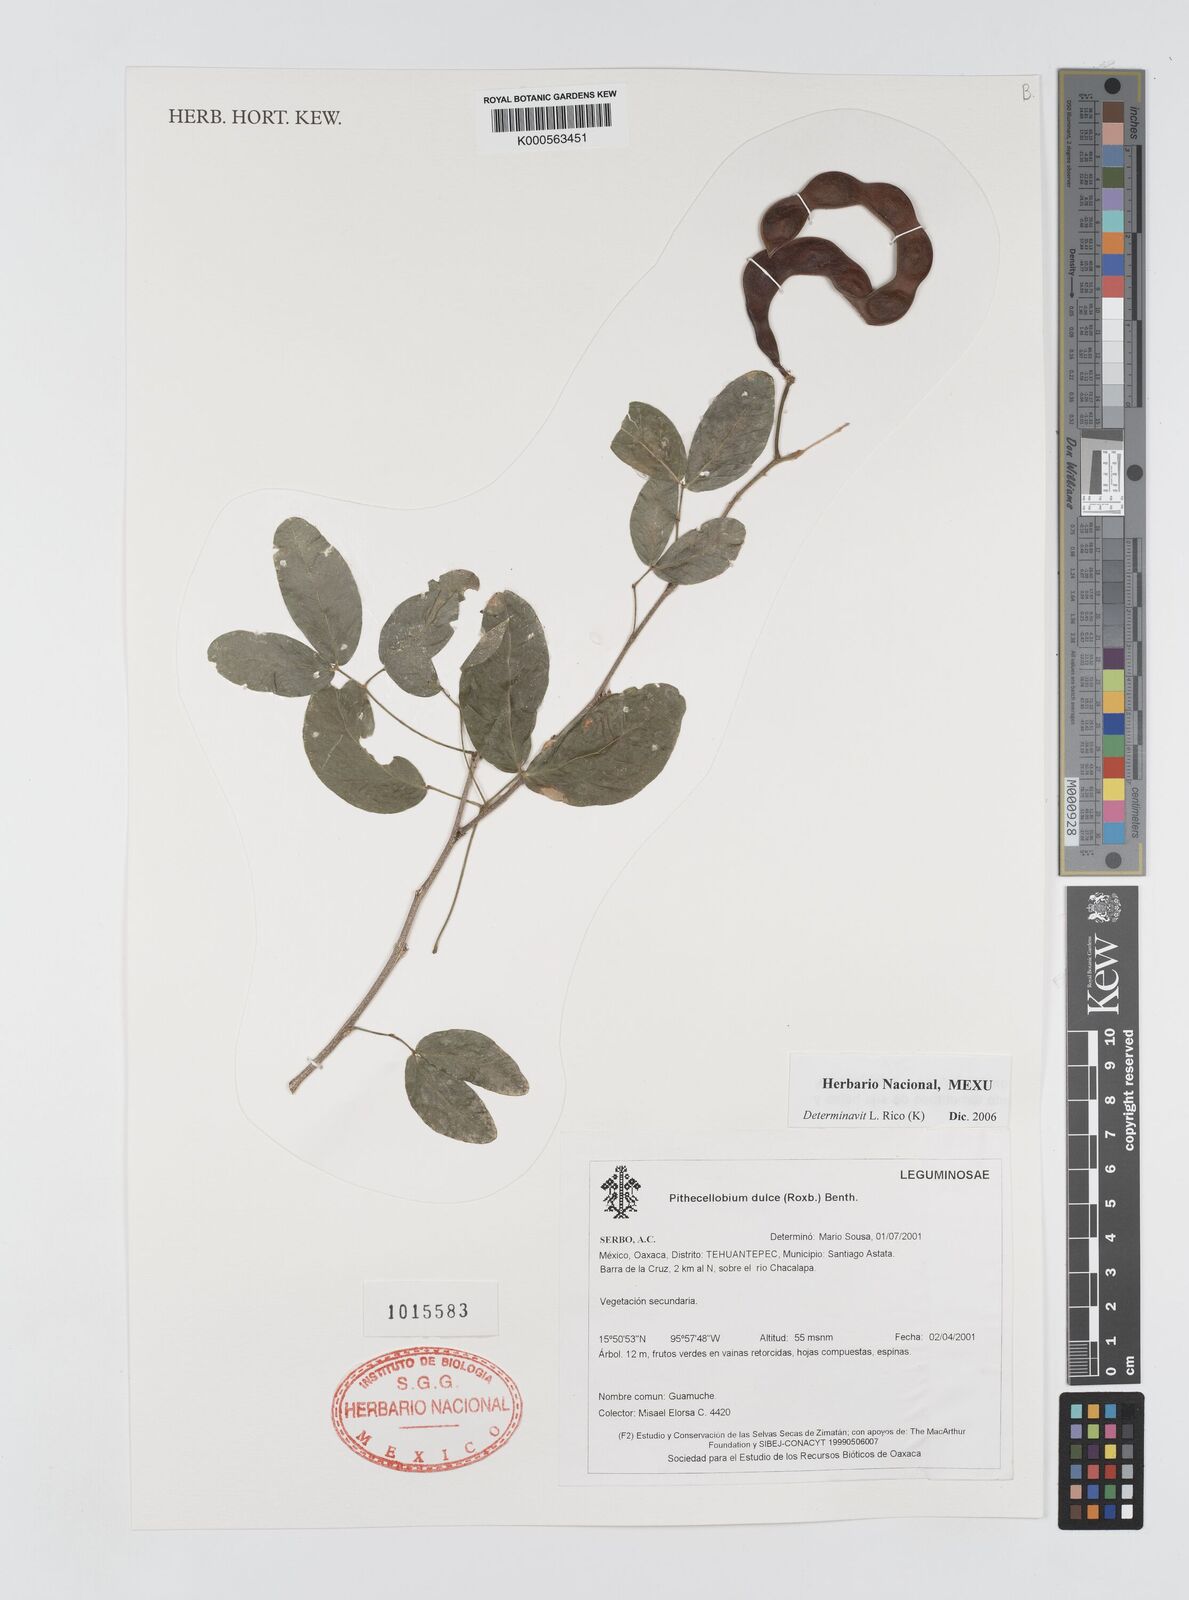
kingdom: Plantae
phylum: Tracheophyta
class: Magnoliopsida
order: Fabales
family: Fabaceae
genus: Pithecellobium
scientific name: Pithecellobium dulce
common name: Monkeypod
